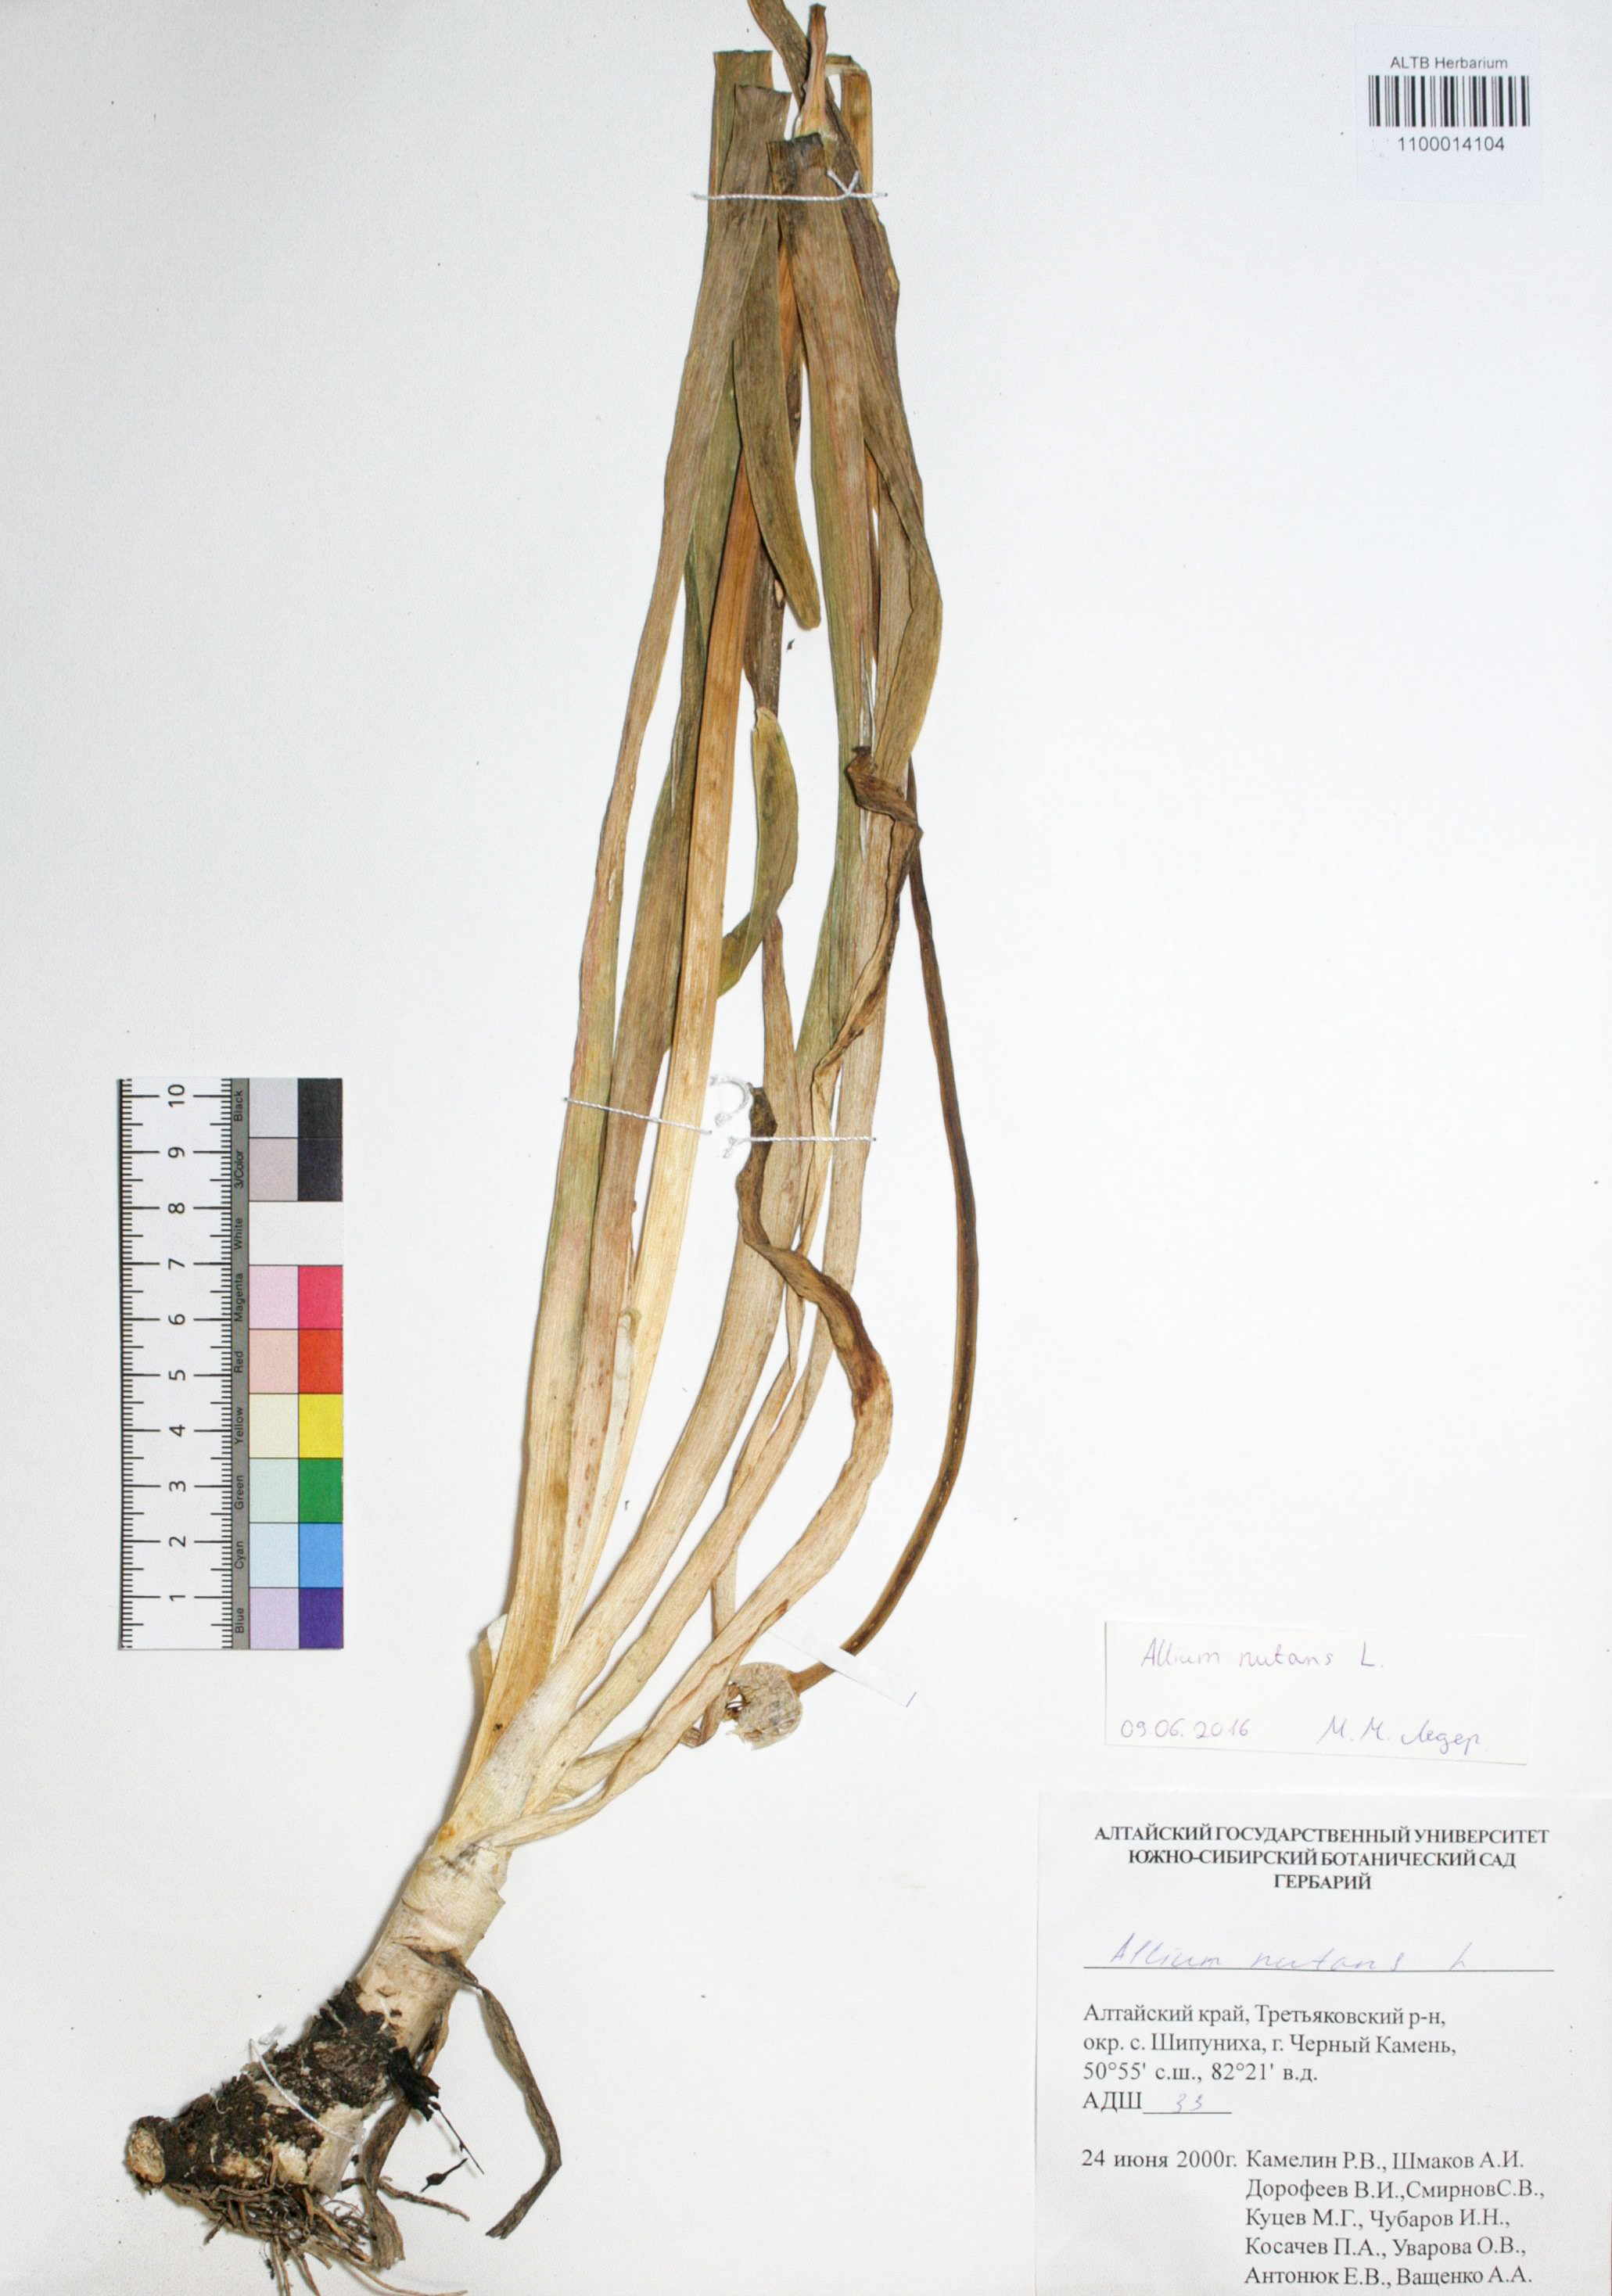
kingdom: Plantae
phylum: Tracheophyta
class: Liliopsida
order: Asparagales
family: Amaryllidaceae
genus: Allium
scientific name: Allium nutans
